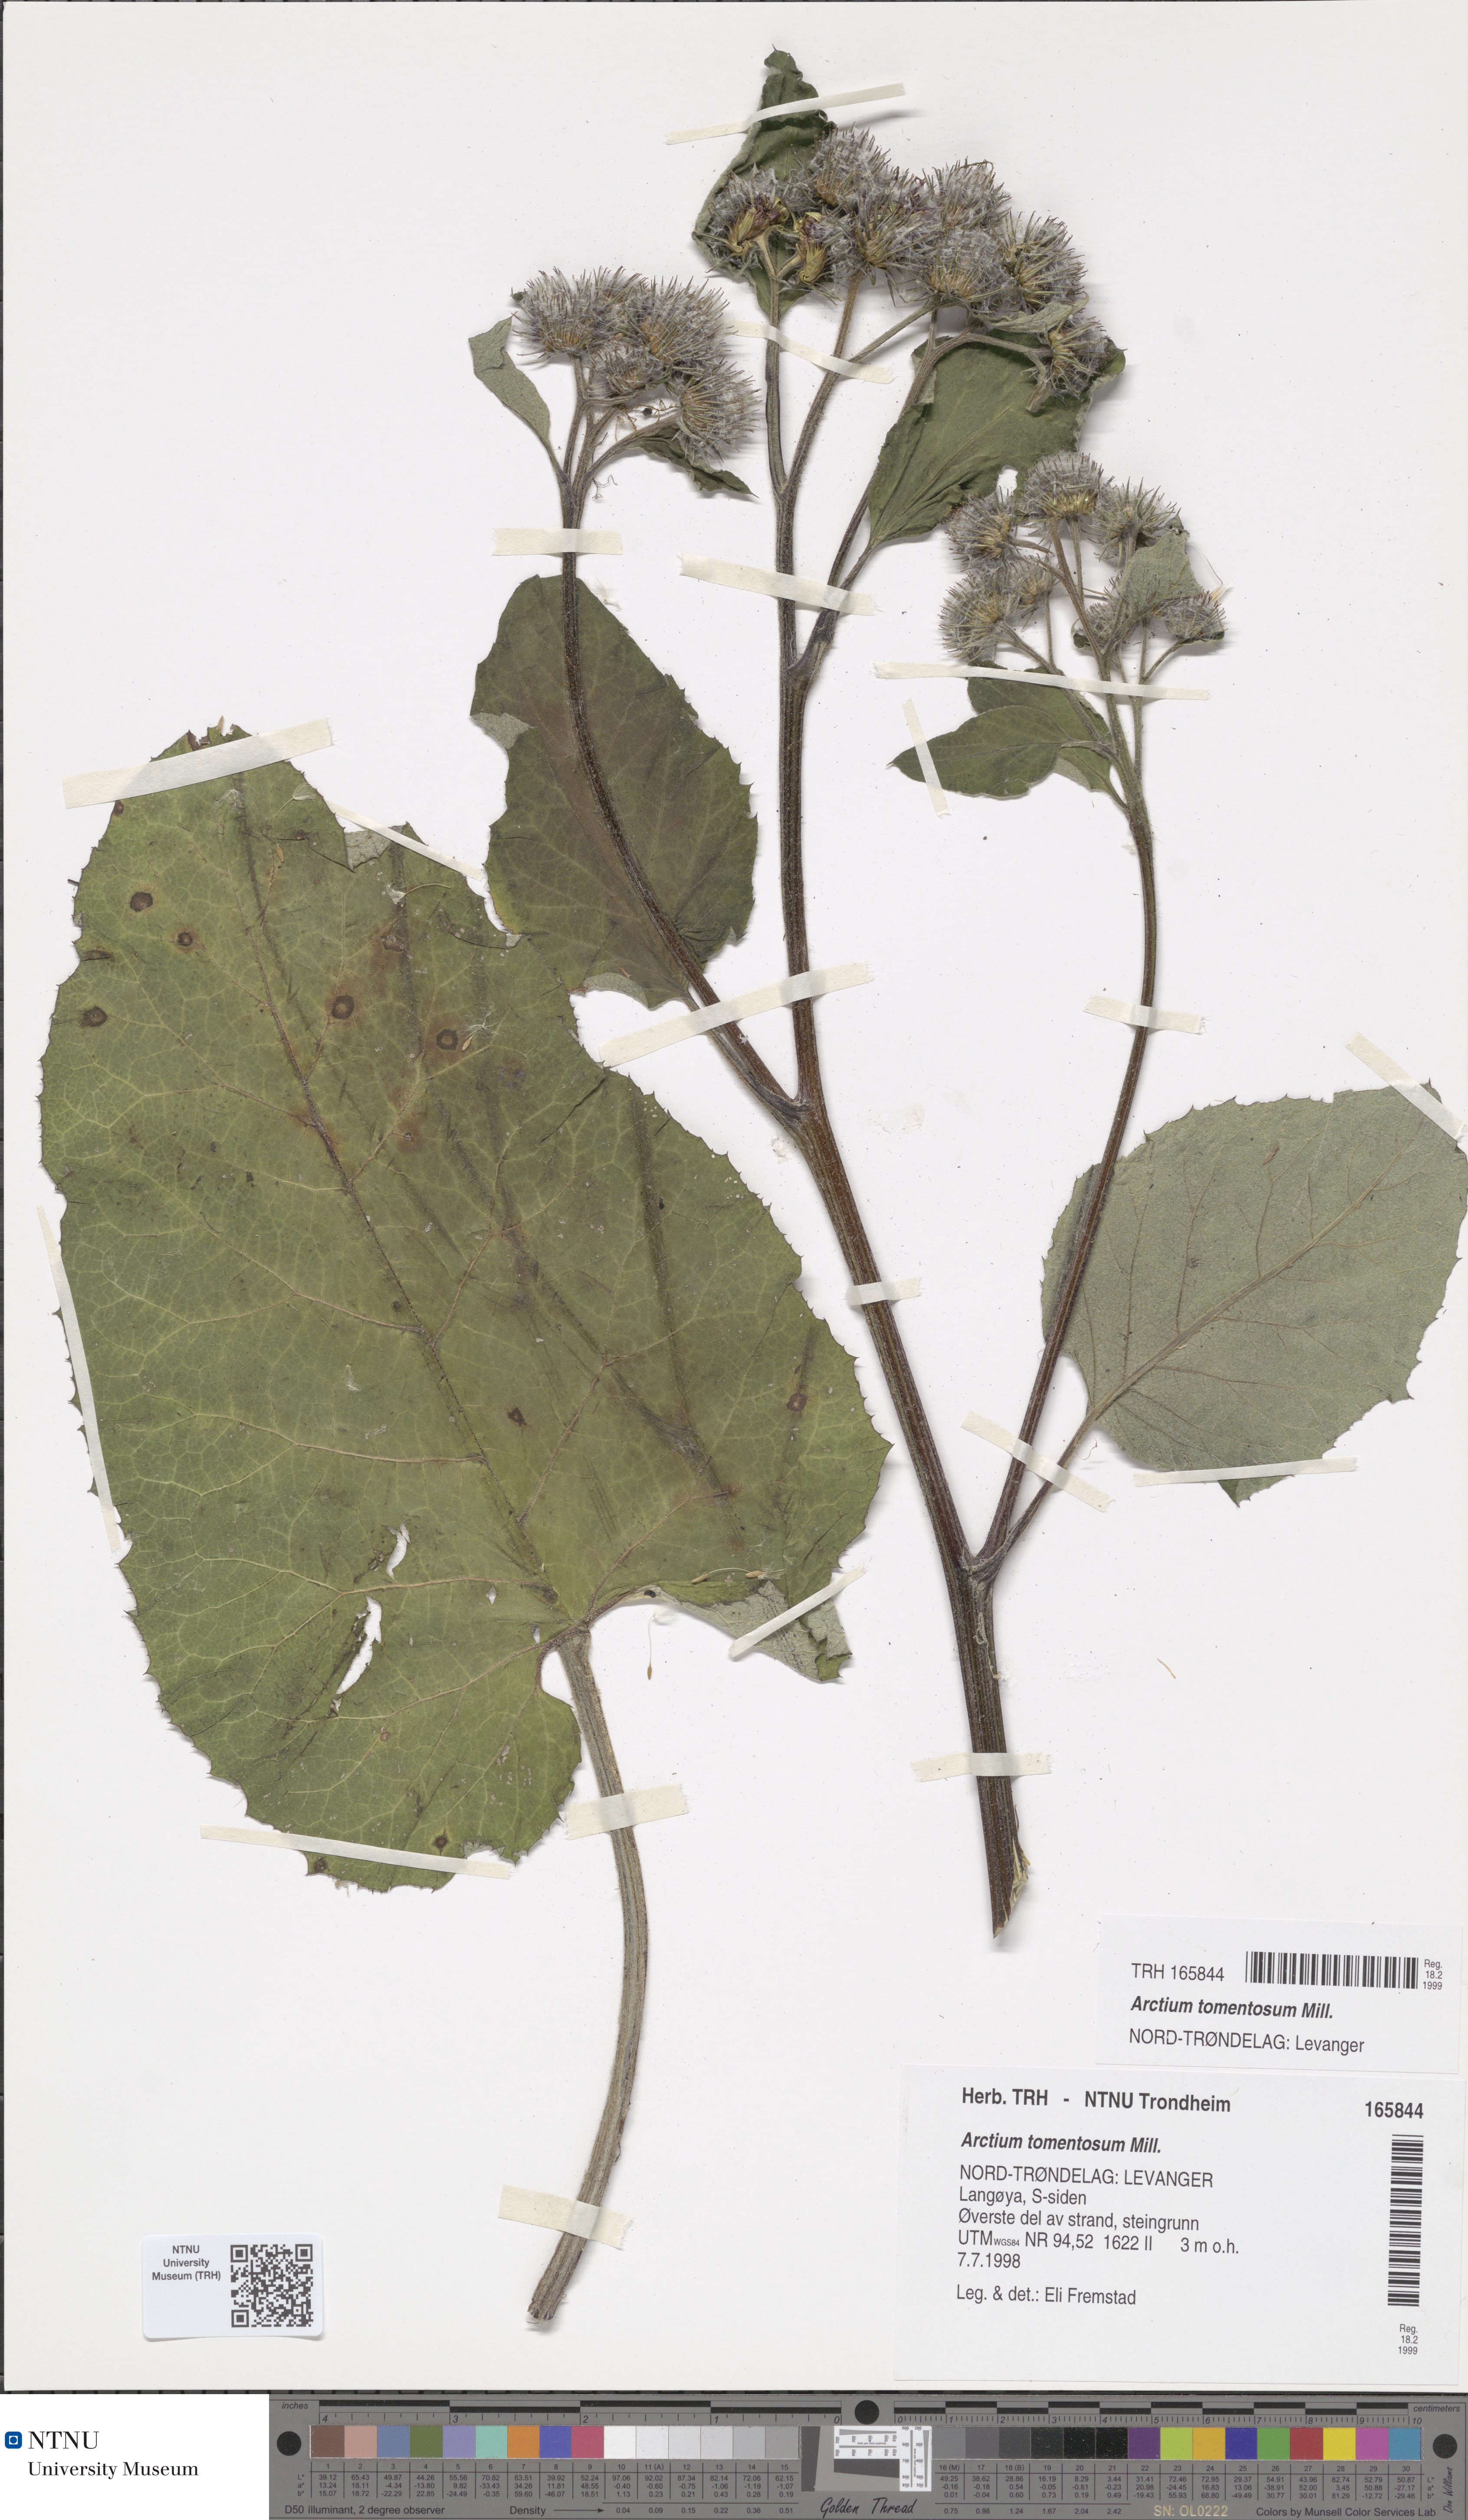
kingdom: Plantae
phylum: Tracheophyta
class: Magnoliopsida
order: Asterales
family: Asteraceae
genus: Arctium
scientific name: Arctium tomentosum
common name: Woolly burdock
